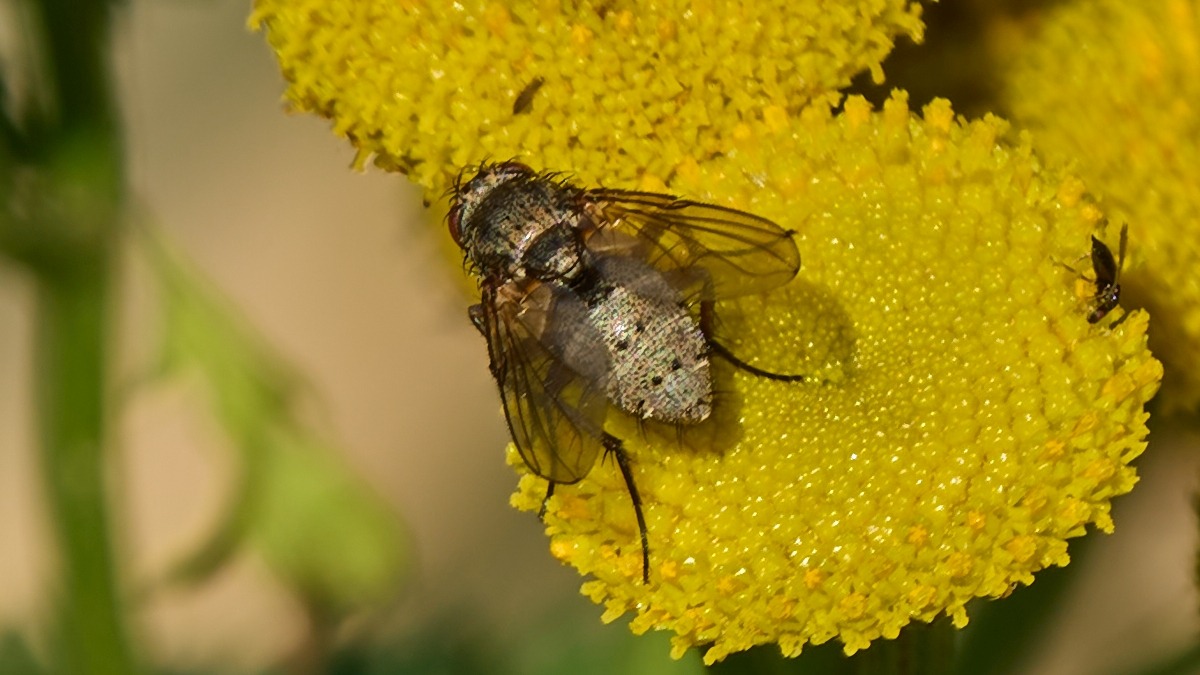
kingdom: Animalia
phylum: Arthropoda
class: Insecta
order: Diptera
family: Tachinidae
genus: Siphona
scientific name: Siphona
